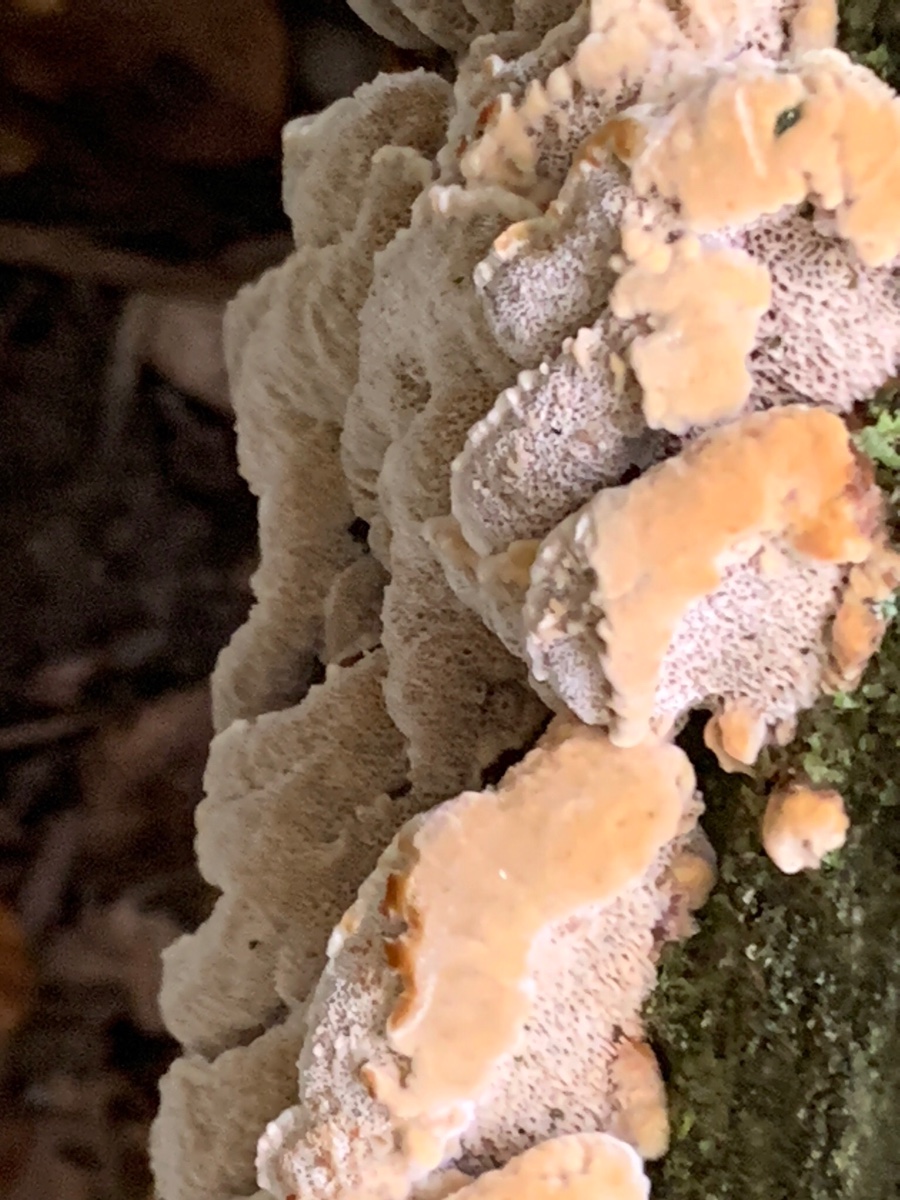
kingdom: Fungi
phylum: Basidiomycota
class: Agaricomycetes
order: Hymenochaetales
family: Hymenochaetaceae
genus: Mensularia
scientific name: Mensularia nodulosa
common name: bøge-spejlporesvamp
